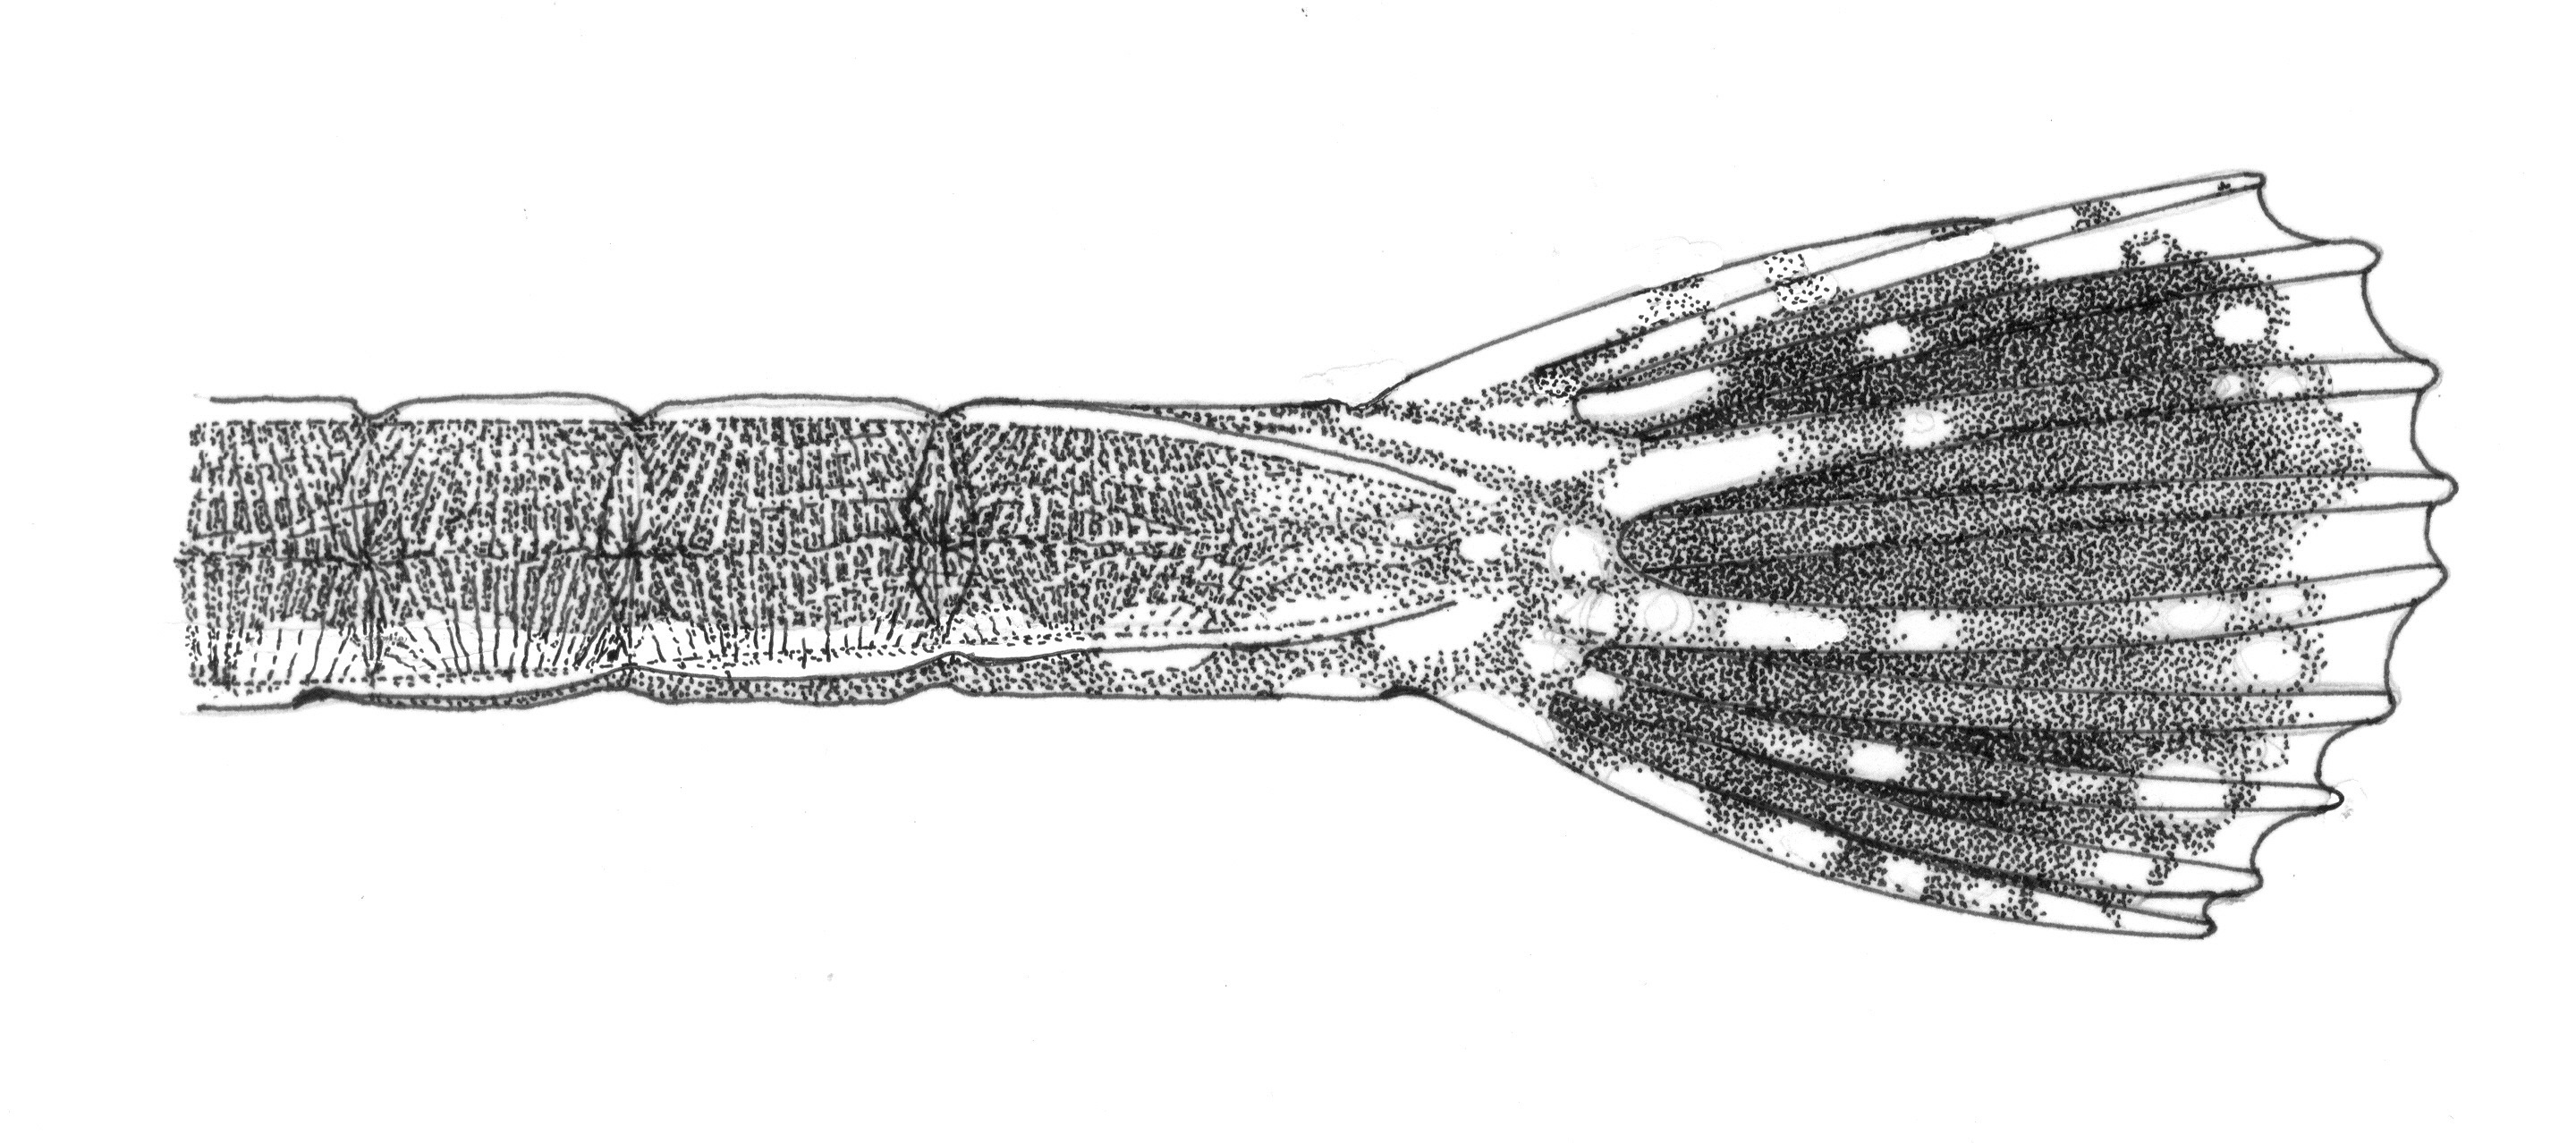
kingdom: Animalia
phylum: Chordata
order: Syngnathiformes
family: Syngnathidae
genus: Bryx
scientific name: Bryx analicarens
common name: Pink pipefish
